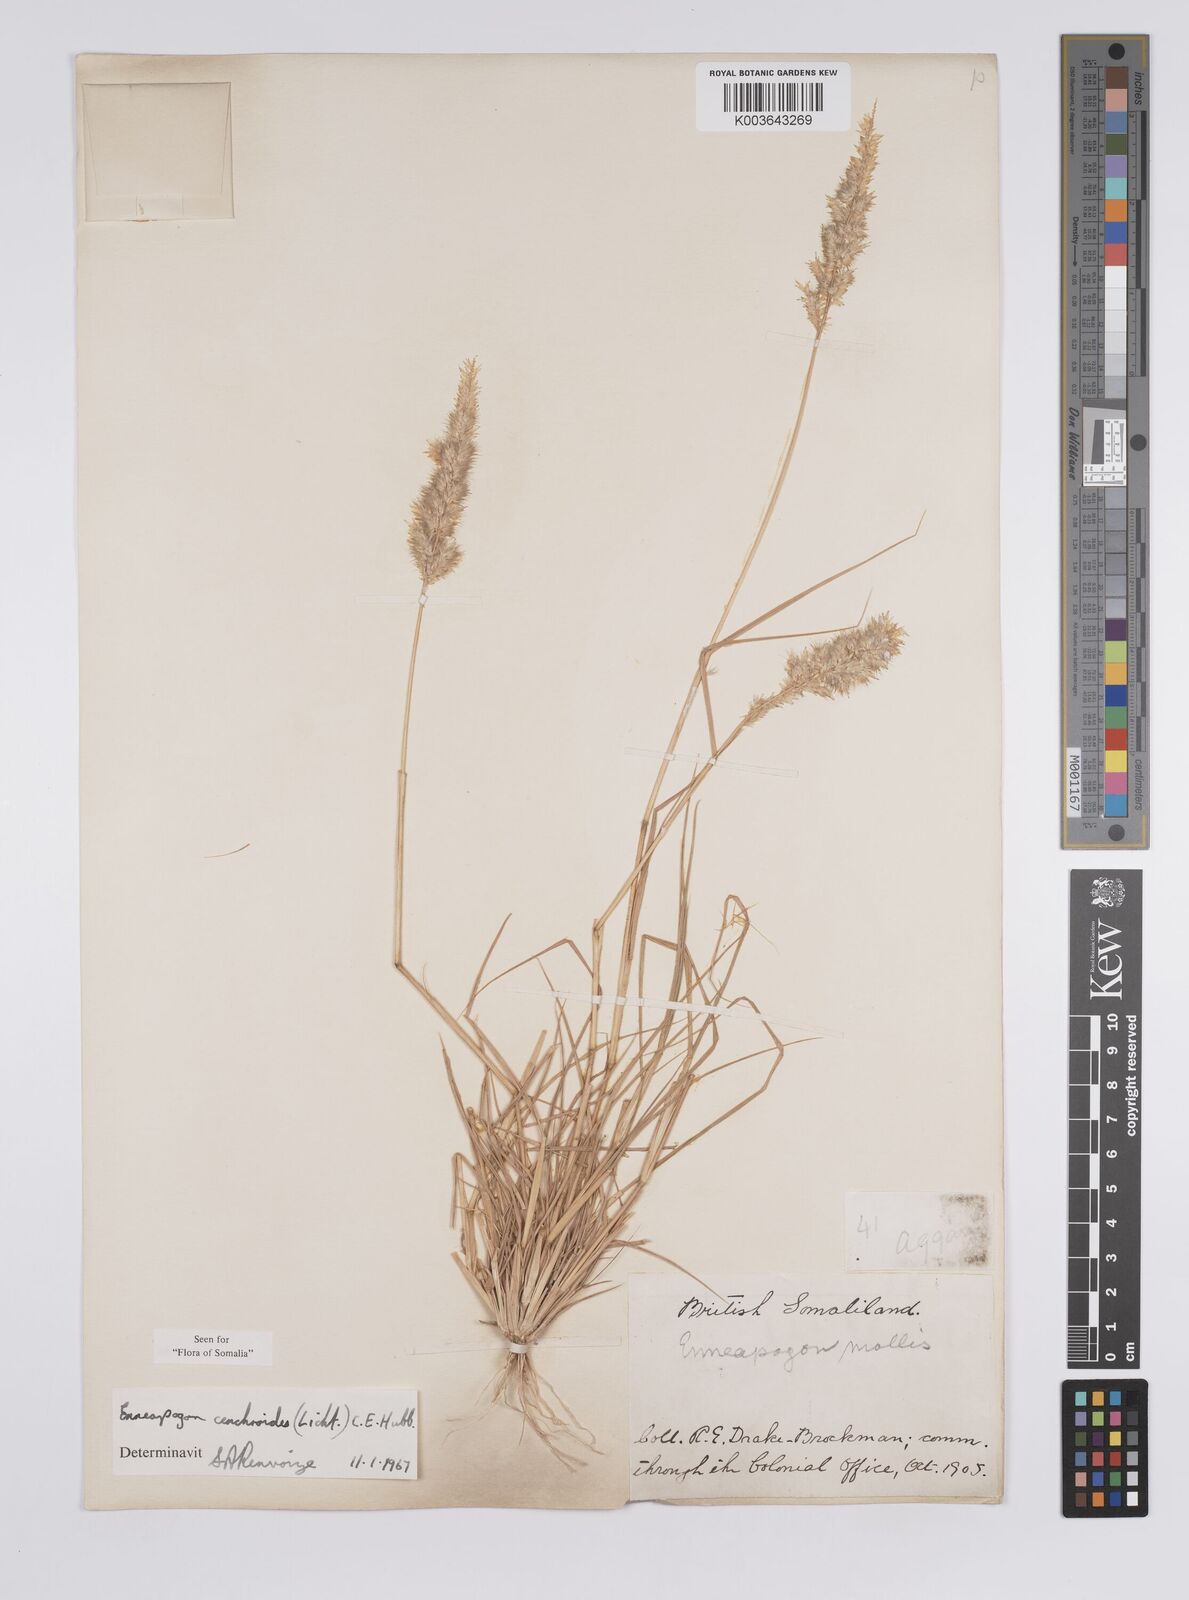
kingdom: Plantae
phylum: Tracheophyta
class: Liliopsida
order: Poales
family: Poaceae
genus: Enneapogon
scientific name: Enneapogon cenchroides
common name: Soft feather pappusgrass
